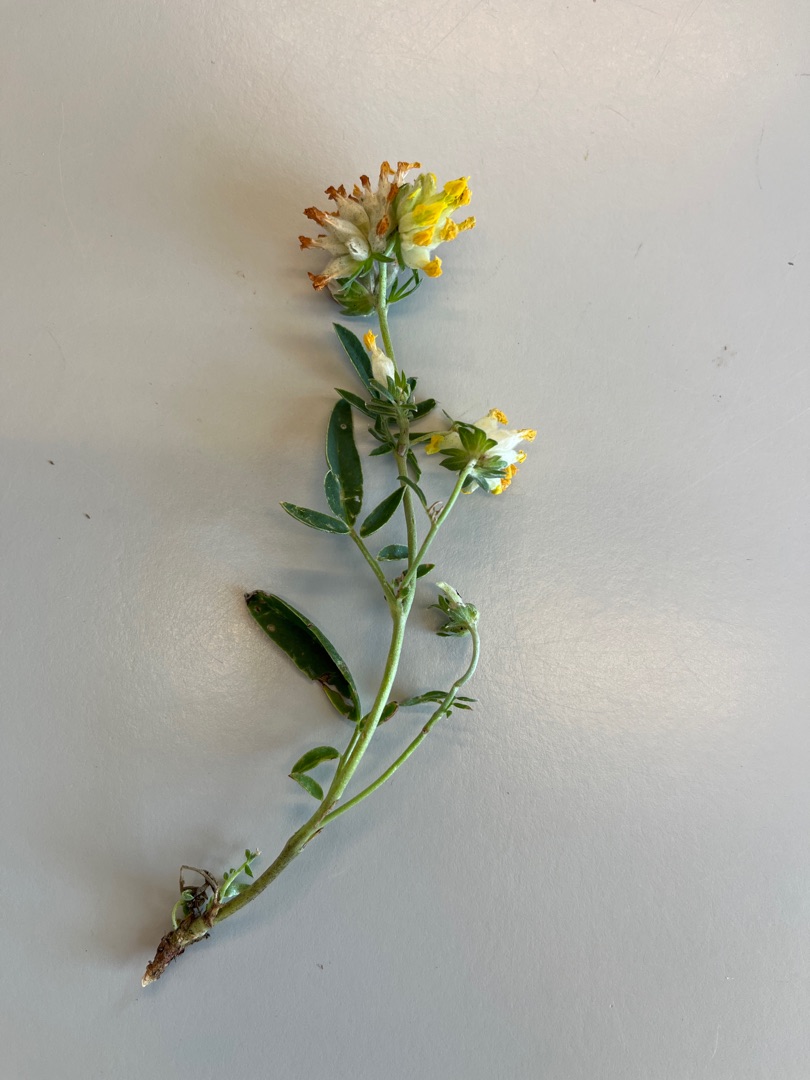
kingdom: Plantae
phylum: Tracheophyta
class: Magnoliopsida
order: Fabales
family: Fabaceae
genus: Anthyllis
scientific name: Anthyllis vulneraria
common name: Rundbælg
